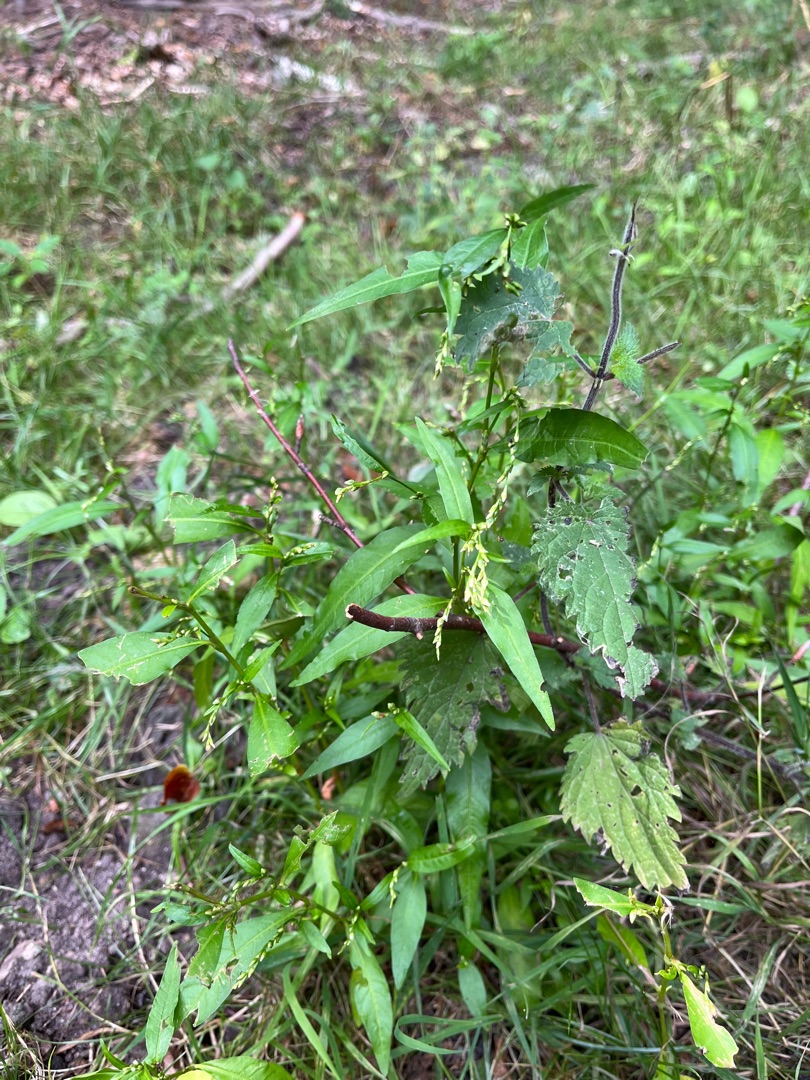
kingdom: Plantae
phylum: Tracheophyta
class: Magnoliopsida
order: Caryophyllales
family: Polygonaceae
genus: Persicaria
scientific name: Persicaria hydropiper
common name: Bidende pileurt
